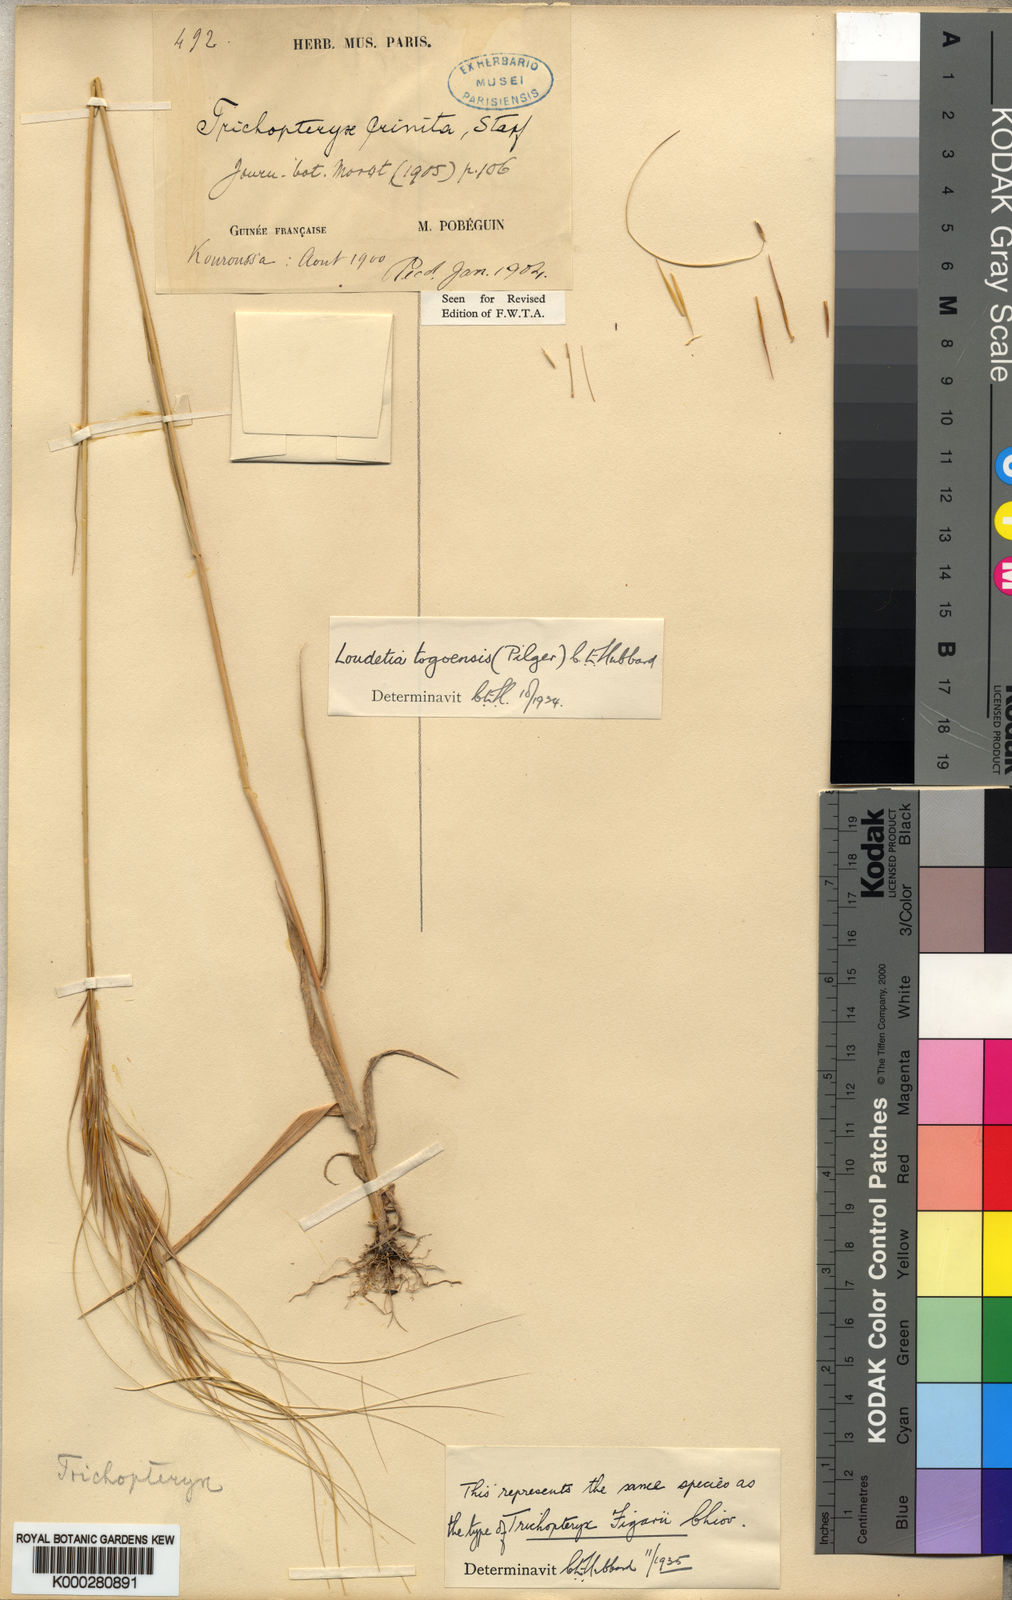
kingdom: Plantae
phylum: Tracheophyta
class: Liliopsida
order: Poales
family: Poaceae
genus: Loudetia
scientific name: Loudetia togoensis
